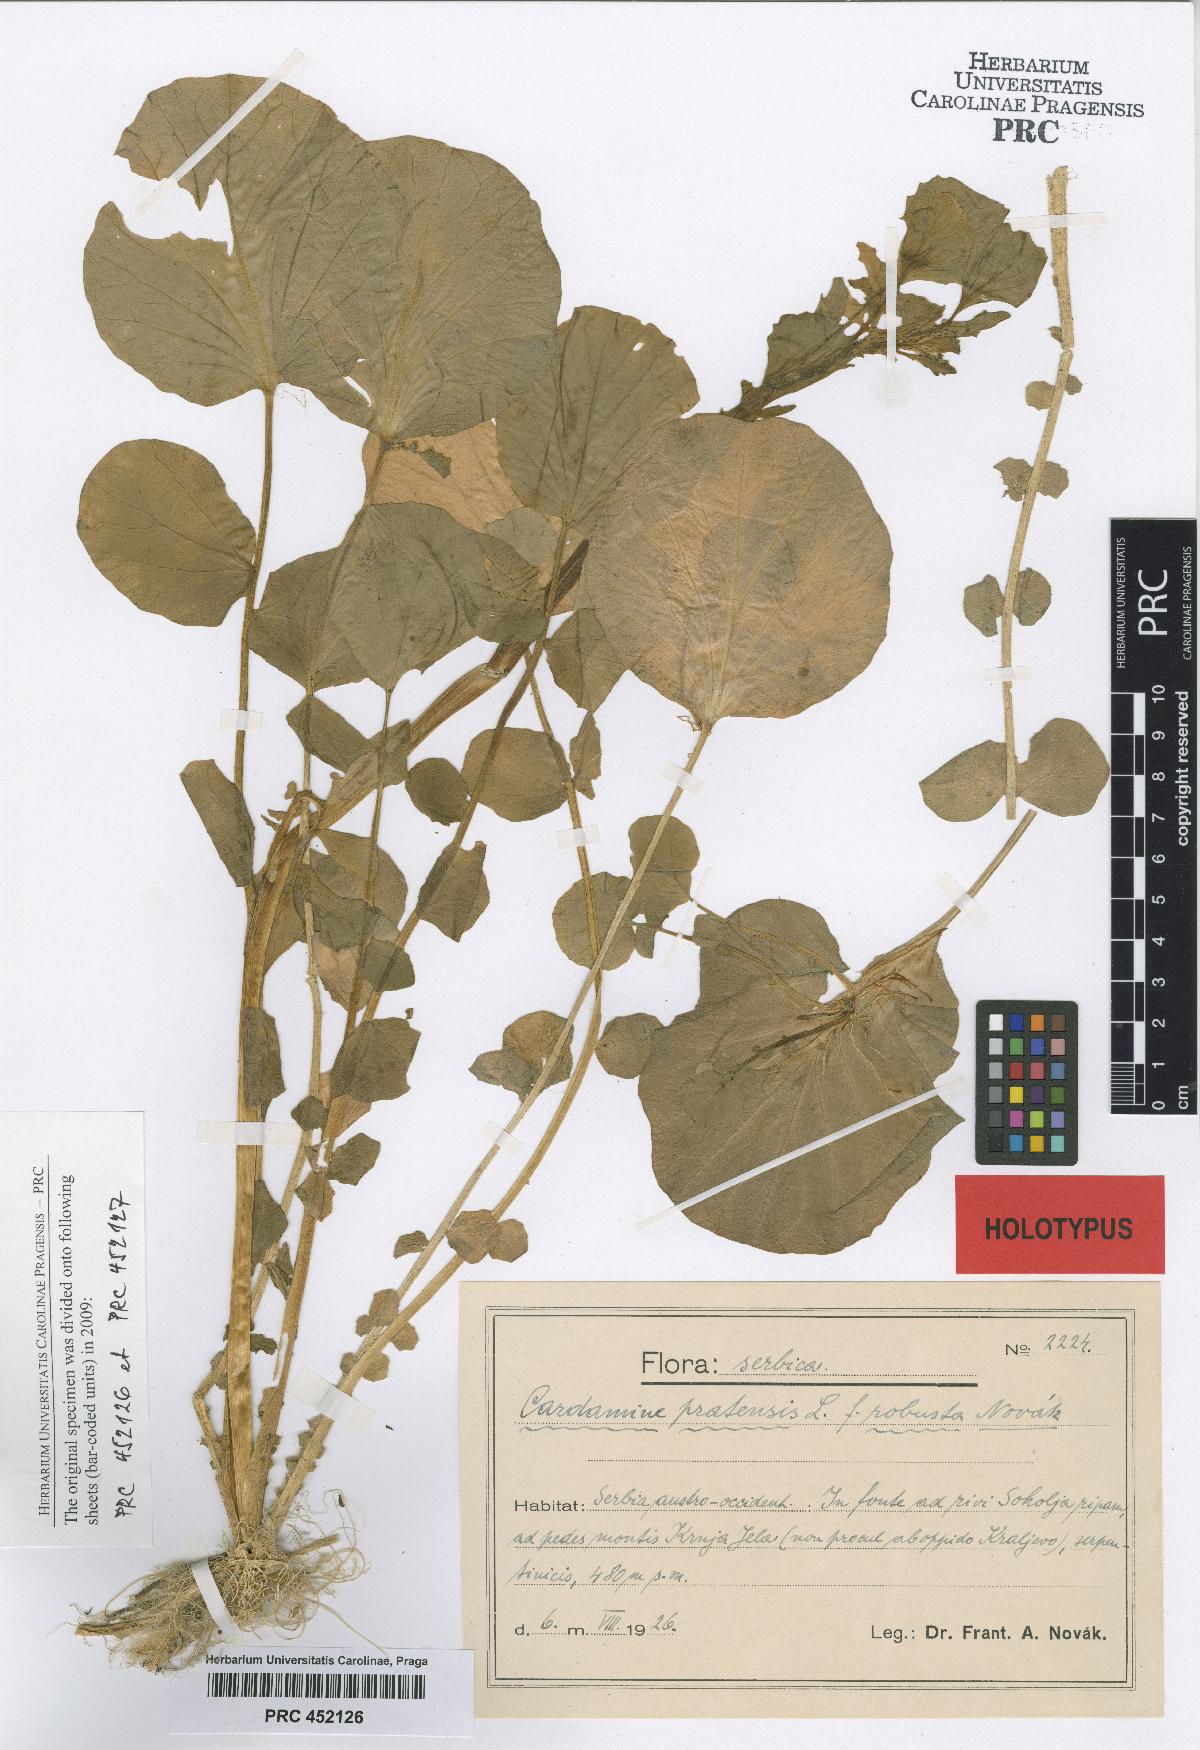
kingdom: Plantae
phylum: Tracheophyta
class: Magnoliopsida
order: Brassicales
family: Brassicaceae
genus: Cardamine
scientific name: Cardamine pratensis
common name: Cuckoo flower
